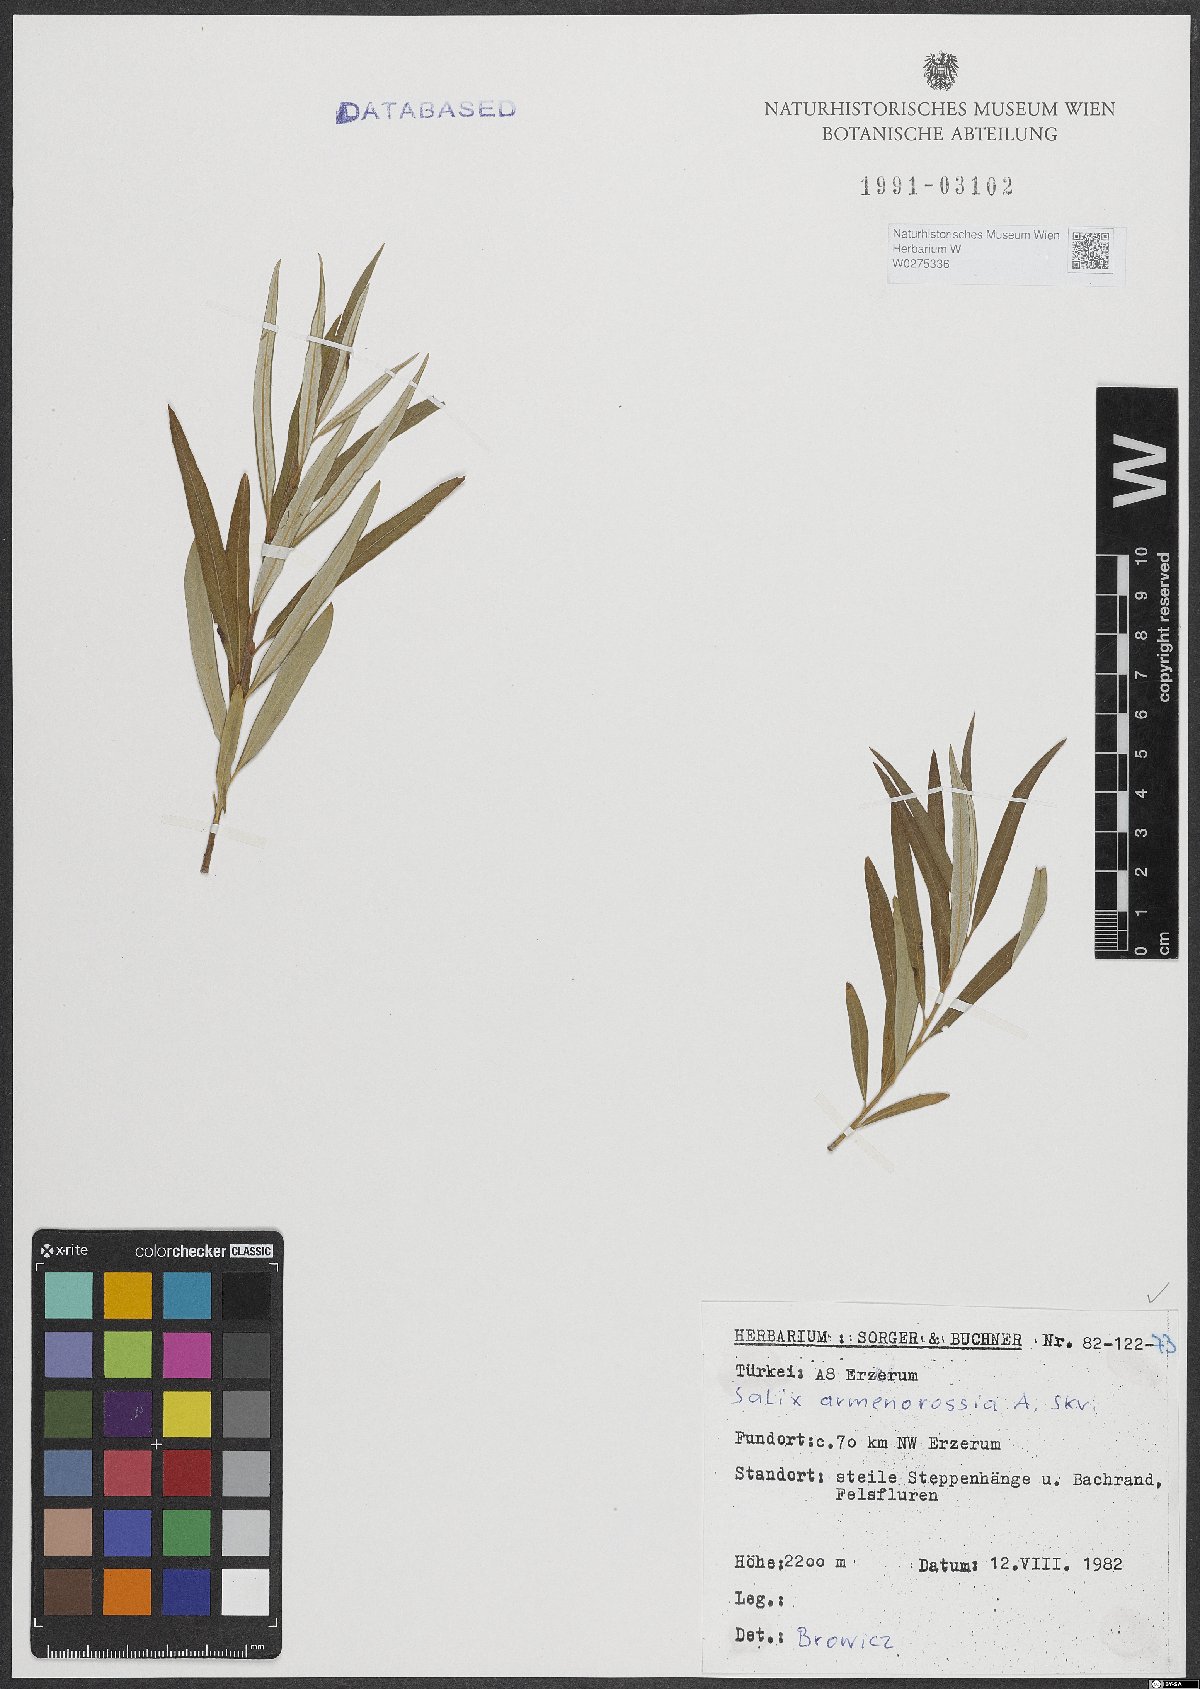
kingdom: Plantae
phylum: Tracheophyta
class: Magnoliopsida
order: Malpighiales
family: Salicaceae
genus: Salix
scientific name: Salix viminalis
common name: Osier
